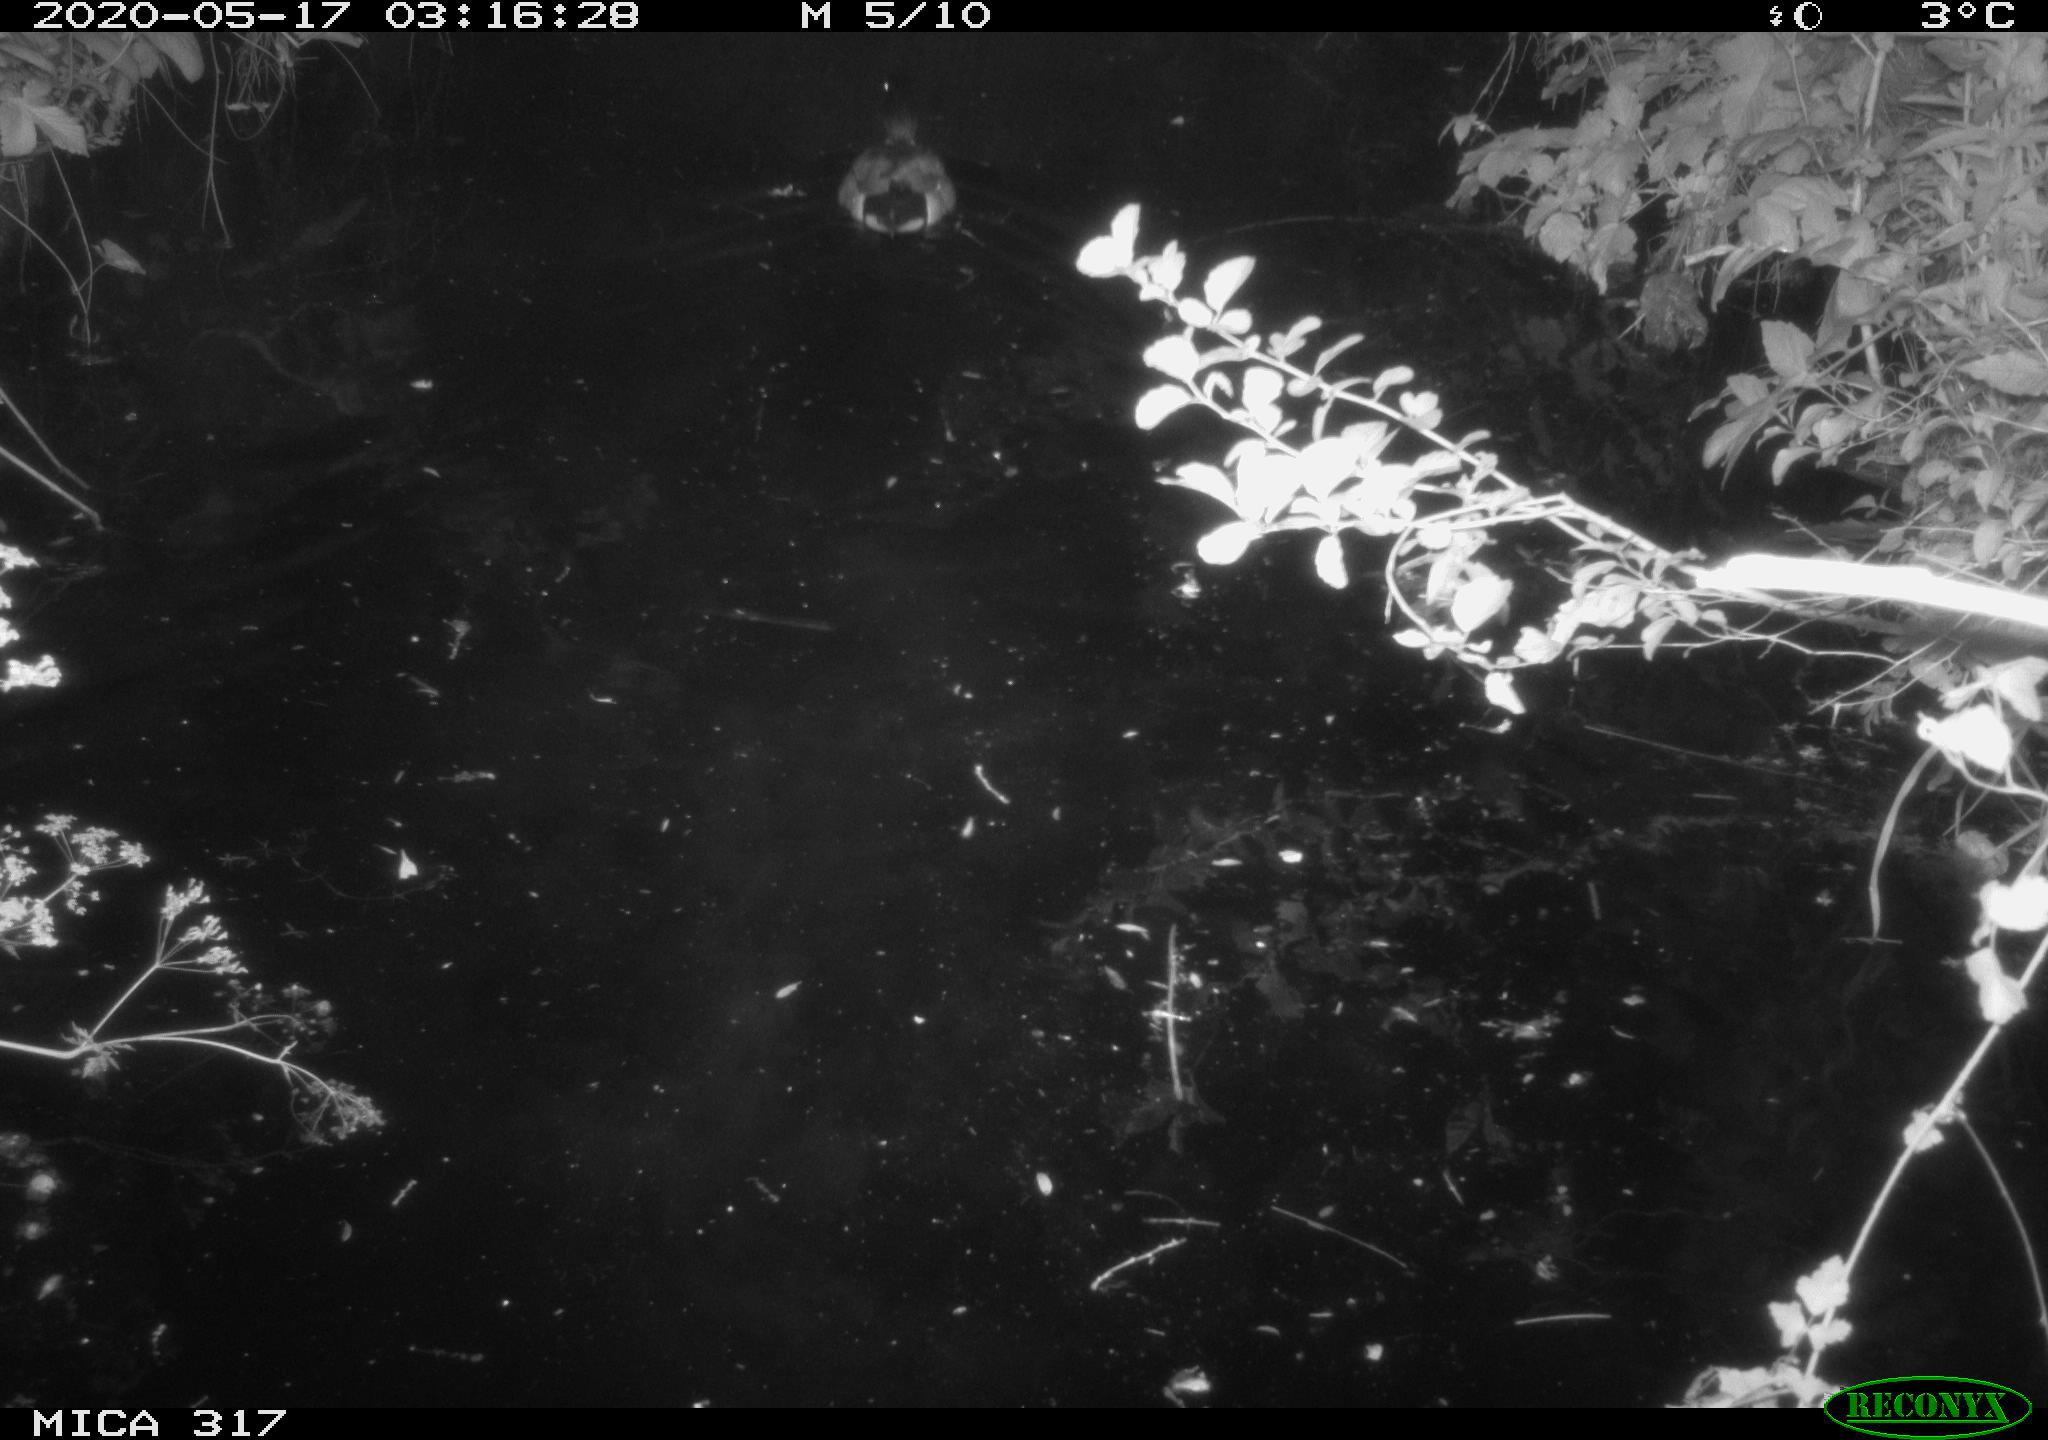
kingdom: Animalia
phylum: Chordata
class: Aves
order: Anseriformes
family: Anatidae
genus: Anas
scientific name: Anas platyrhynchos
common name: Mallard
